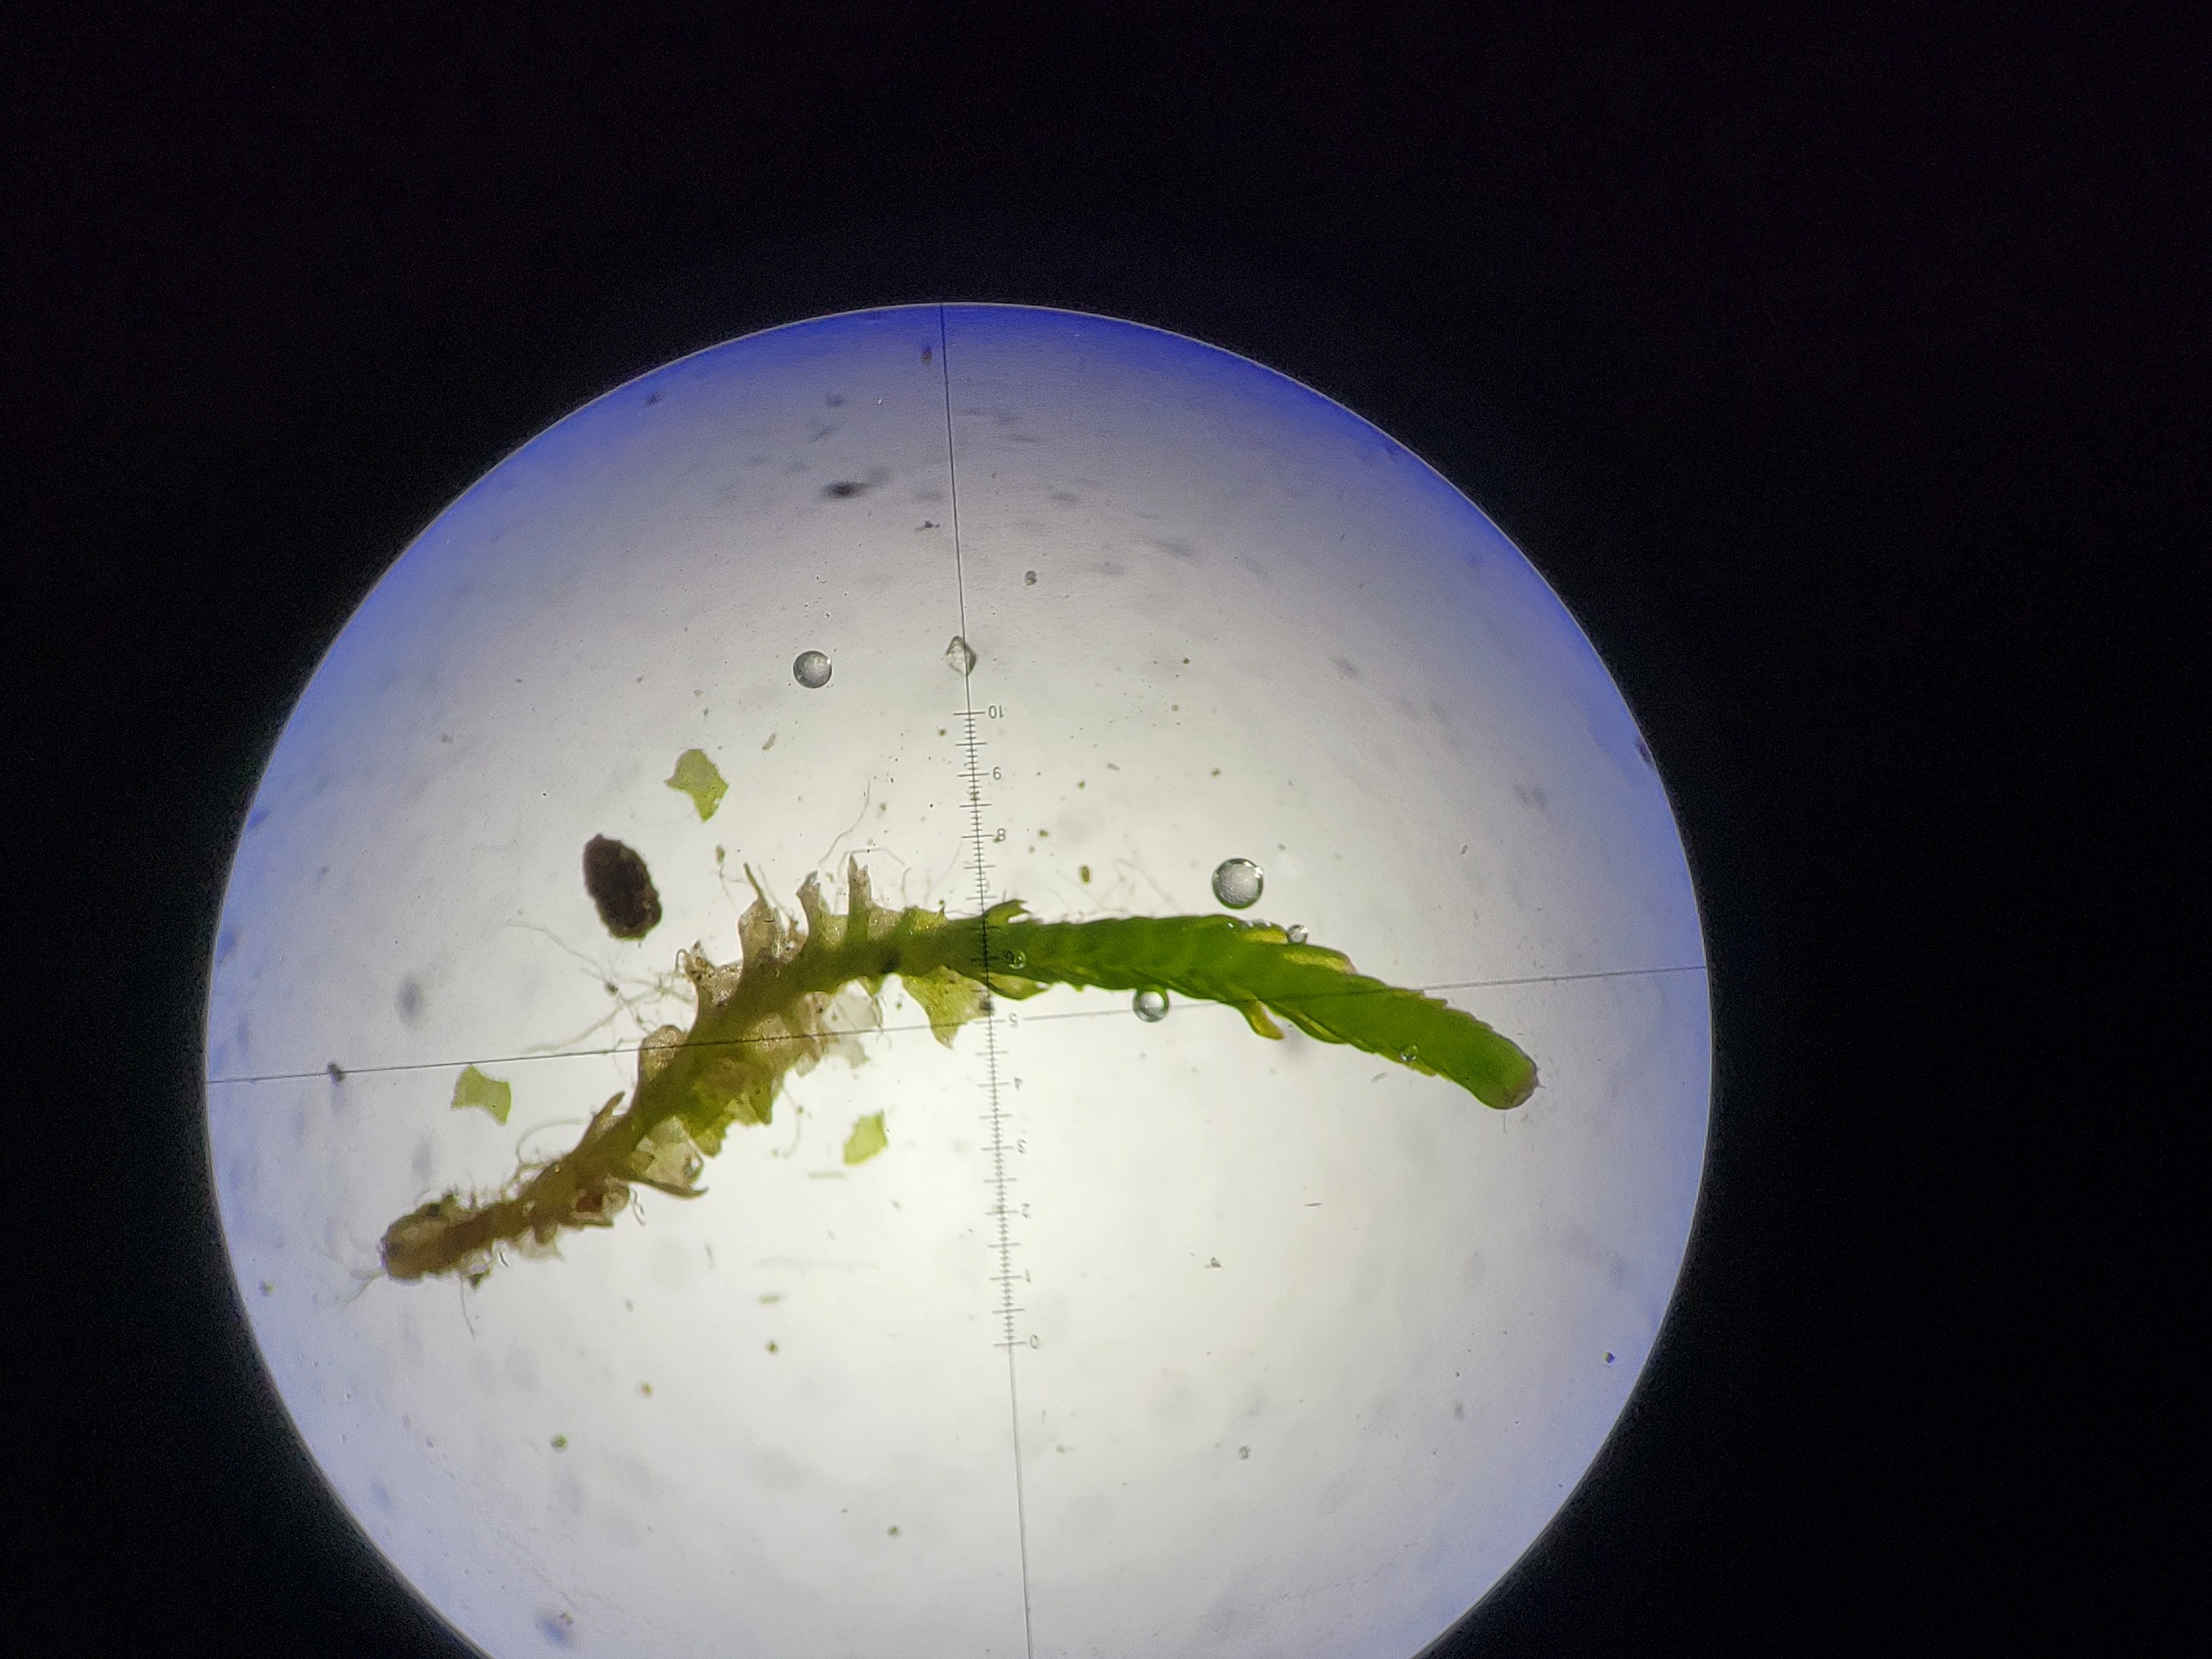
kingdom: Plantae
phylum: Marchantiophyta
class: Jungermanniopsida
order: Jungermanniales
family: Anastrophyllaceae
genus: Neoorthocaulis
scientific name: Neoorthocaulis attenuatus
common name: Tynd flerfligmos
